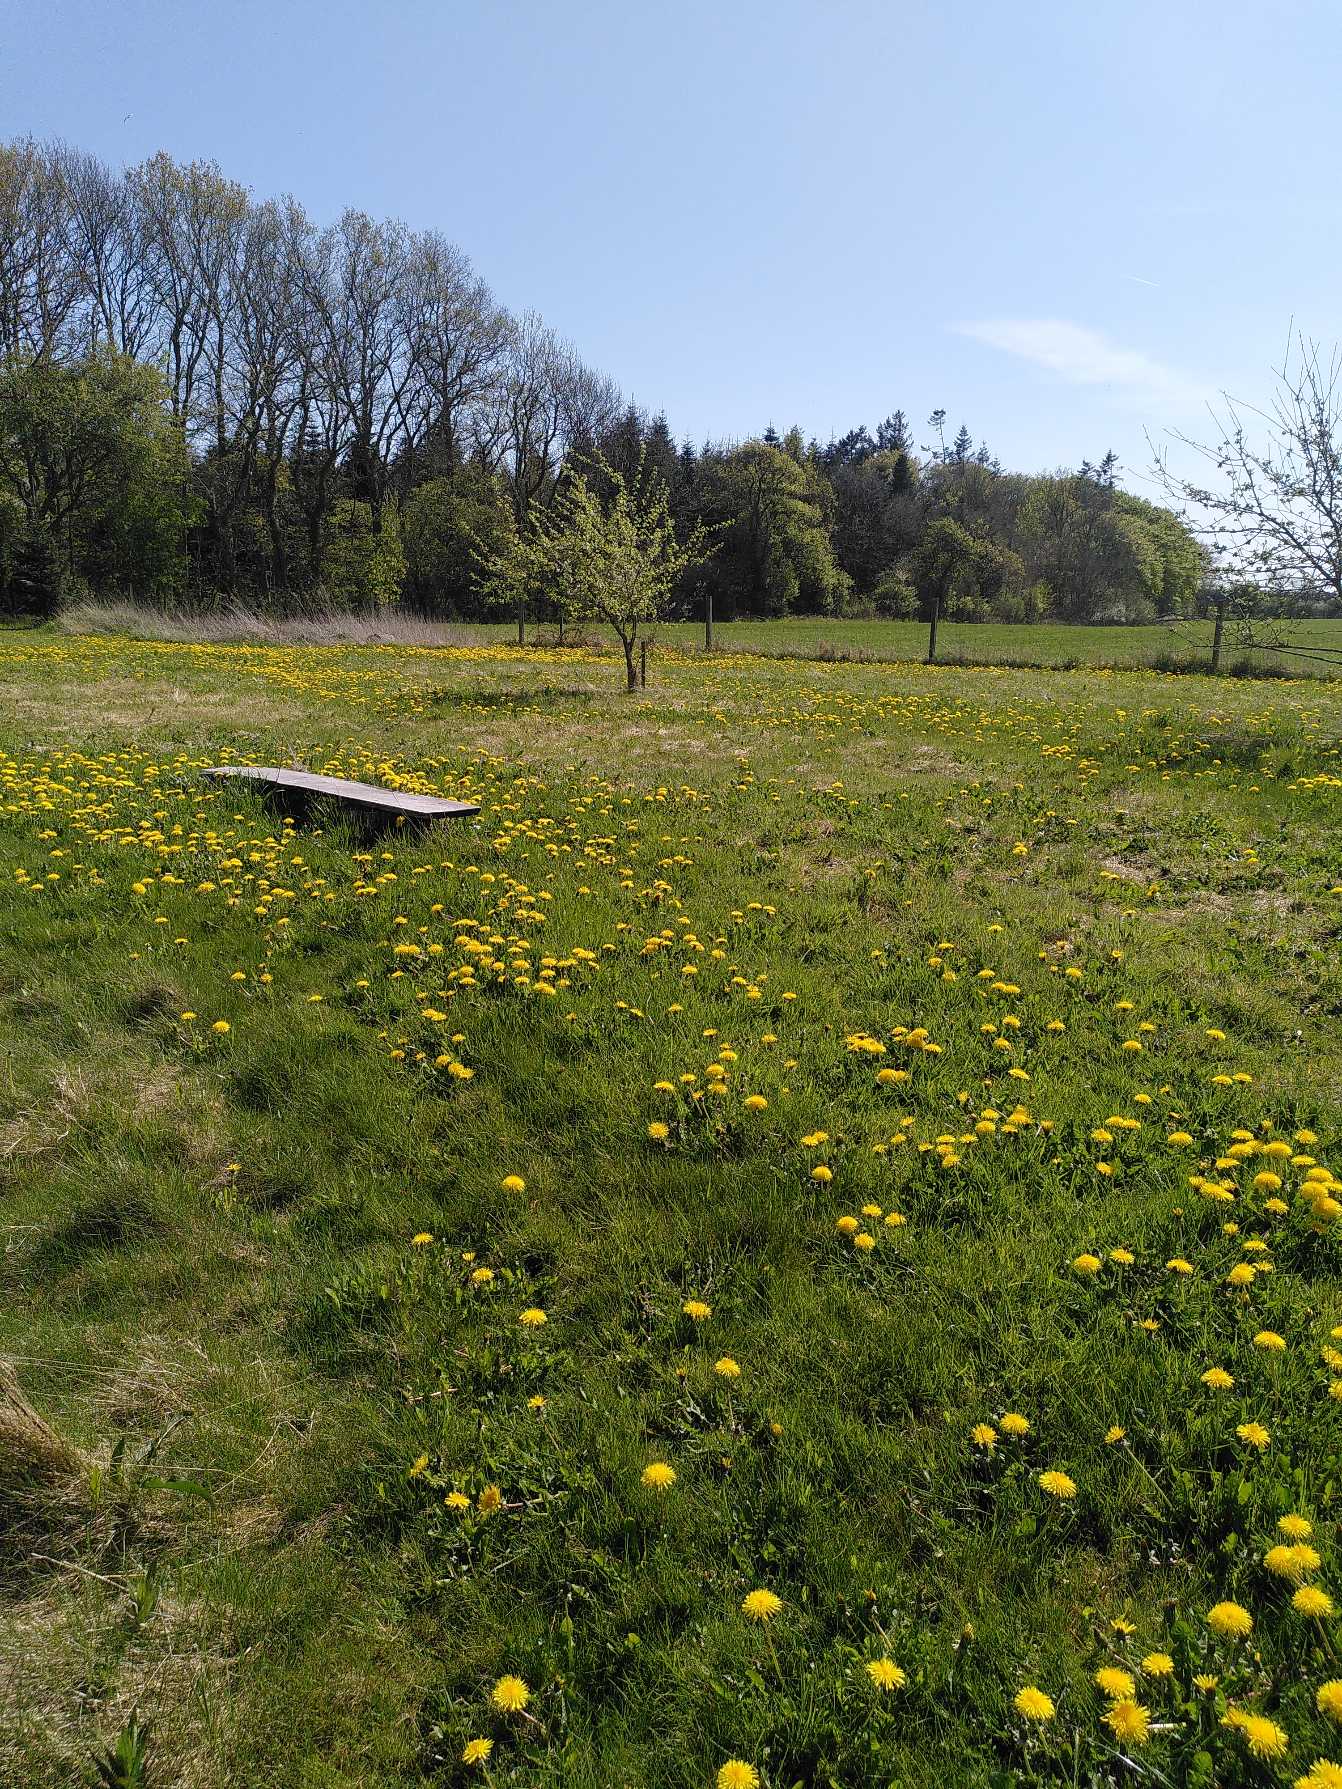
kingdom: Plantae
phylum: Tracheophyta
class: Magnoliopsida
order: Asterales
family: Asteraceae
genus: Taraxacum
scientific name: Taraxacum
